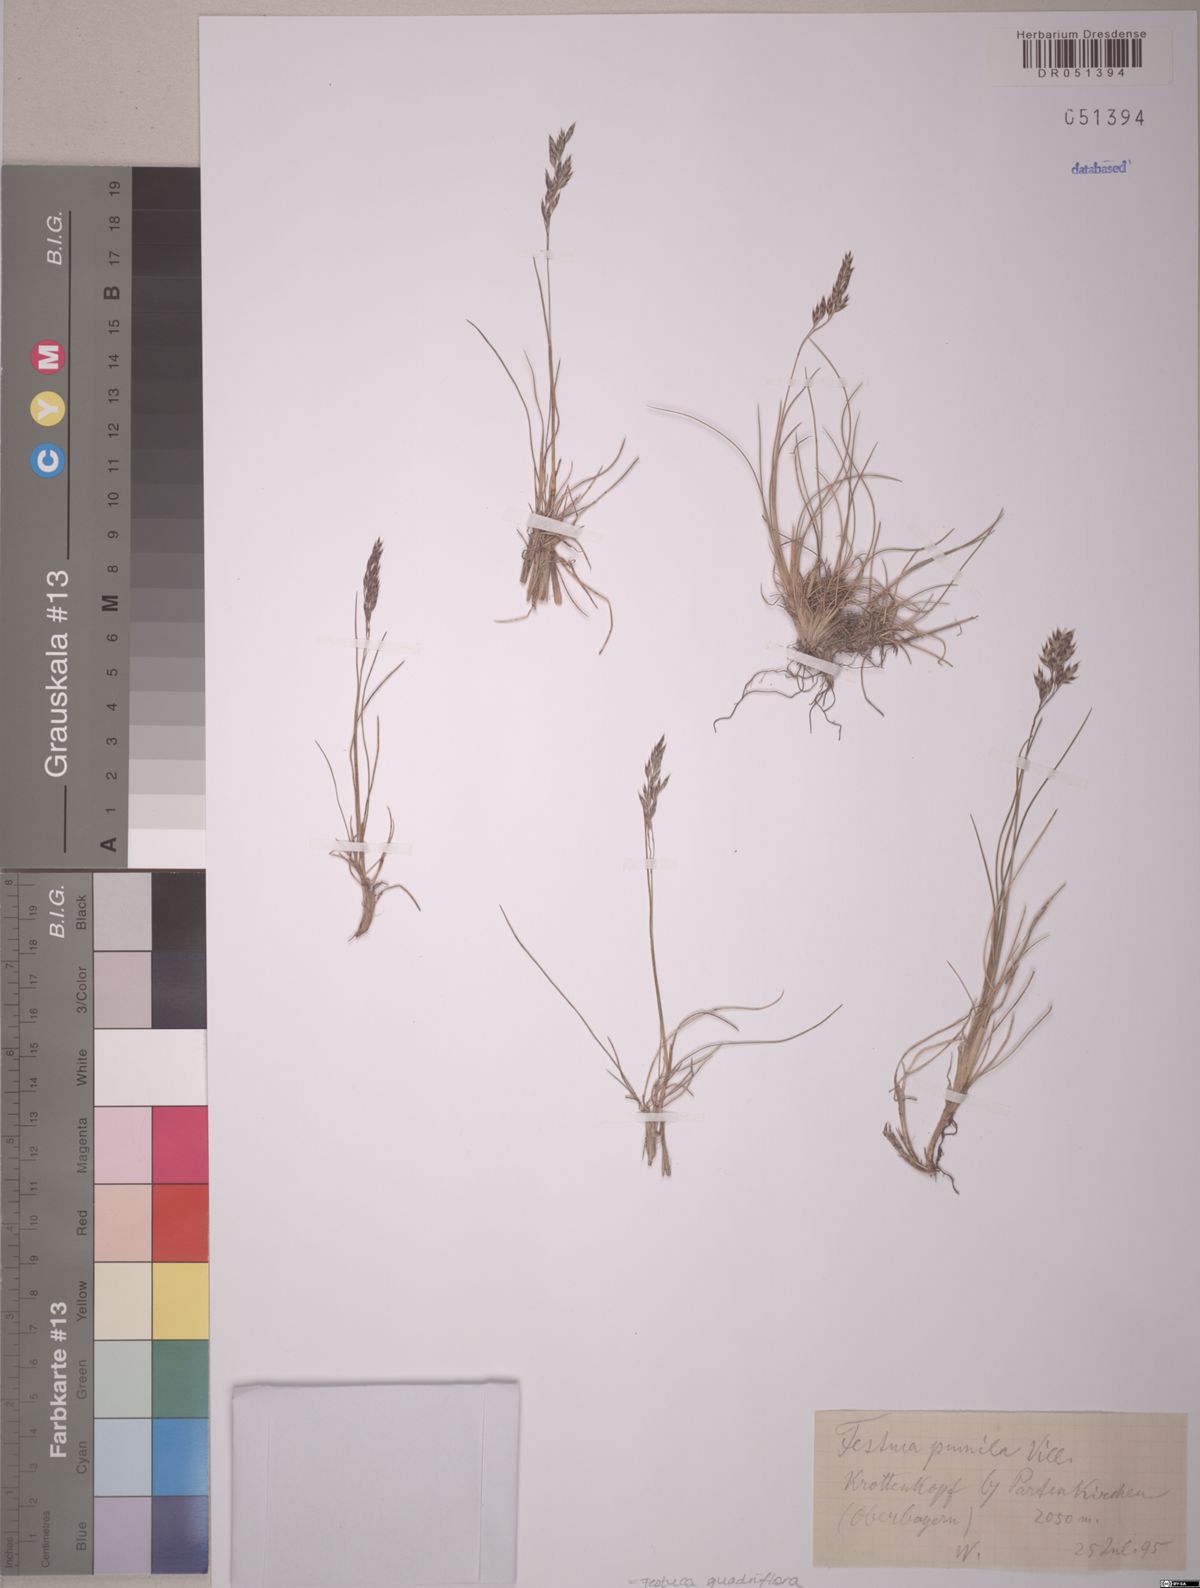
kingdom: Plantae
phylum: Tracheophyta
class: Liliopsida
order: Poales
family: Poaceae
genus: Festuca
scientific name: Festuca quadriflora
